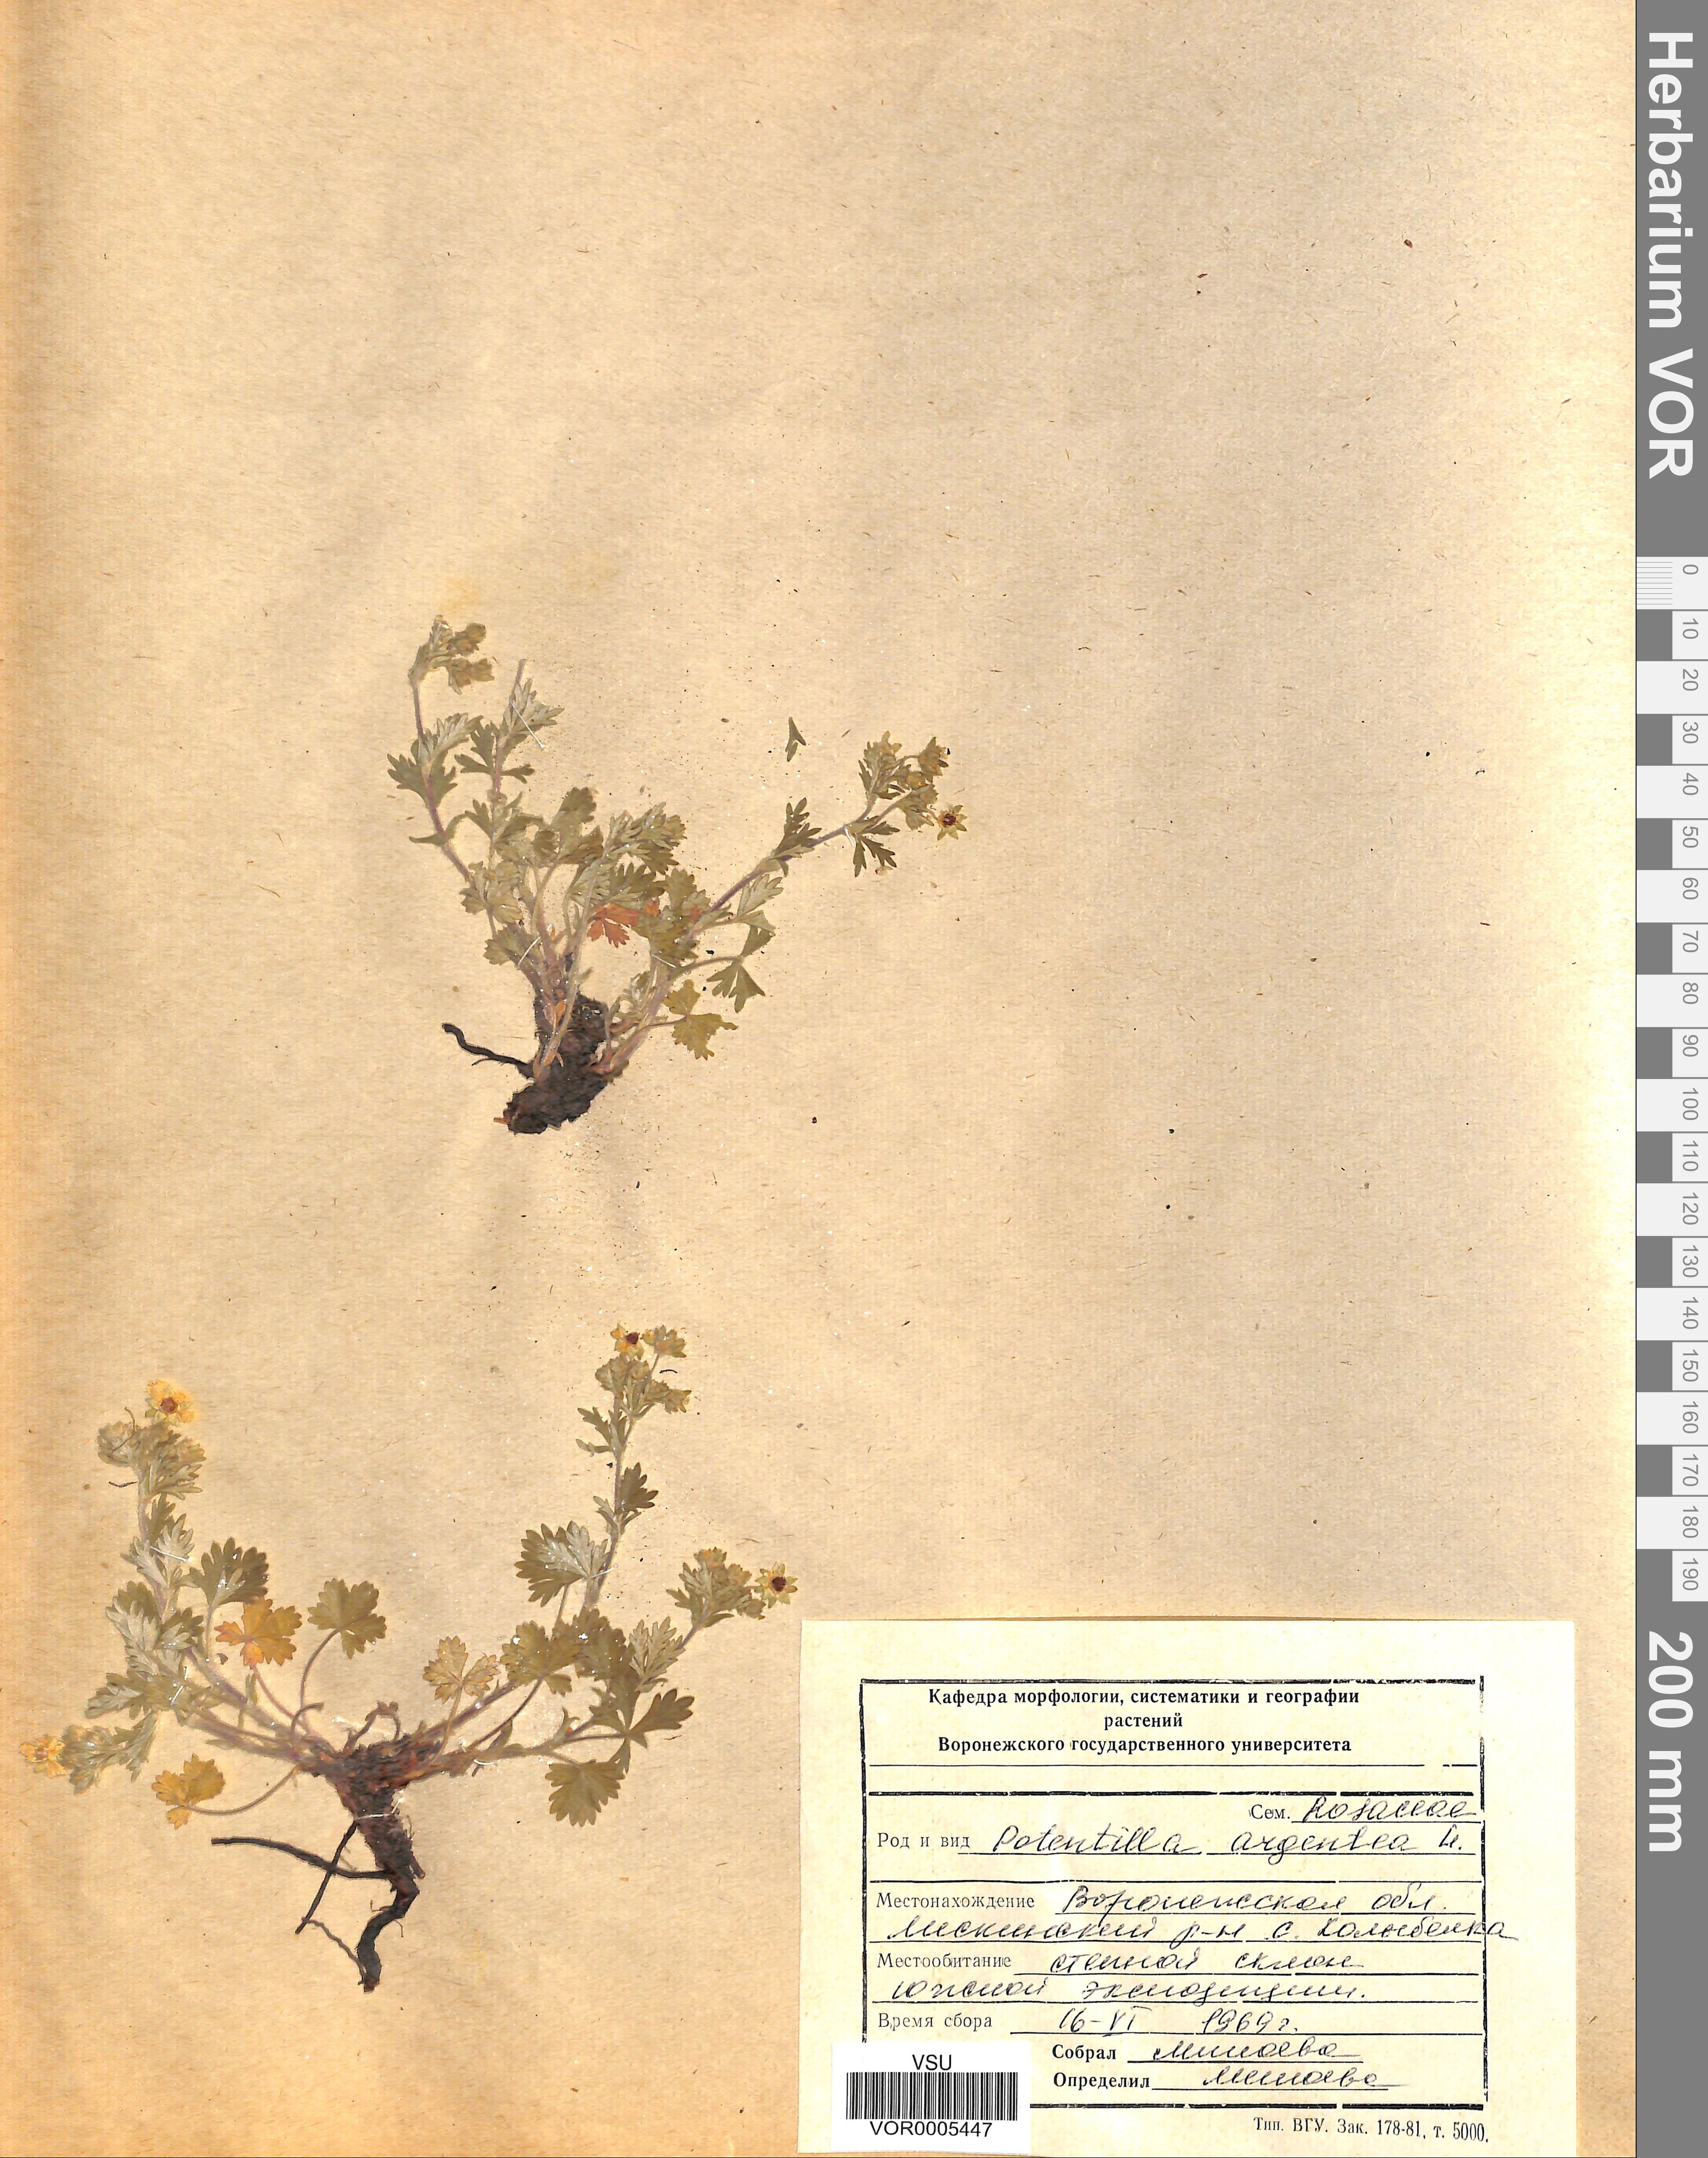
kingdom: Plantae
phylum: Tracheophyta
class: Magnoliopsida
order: Rosales
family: Rosaceae
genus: Potentilla
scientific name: Potentilla collina
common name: Palmleaf cinquefoil
